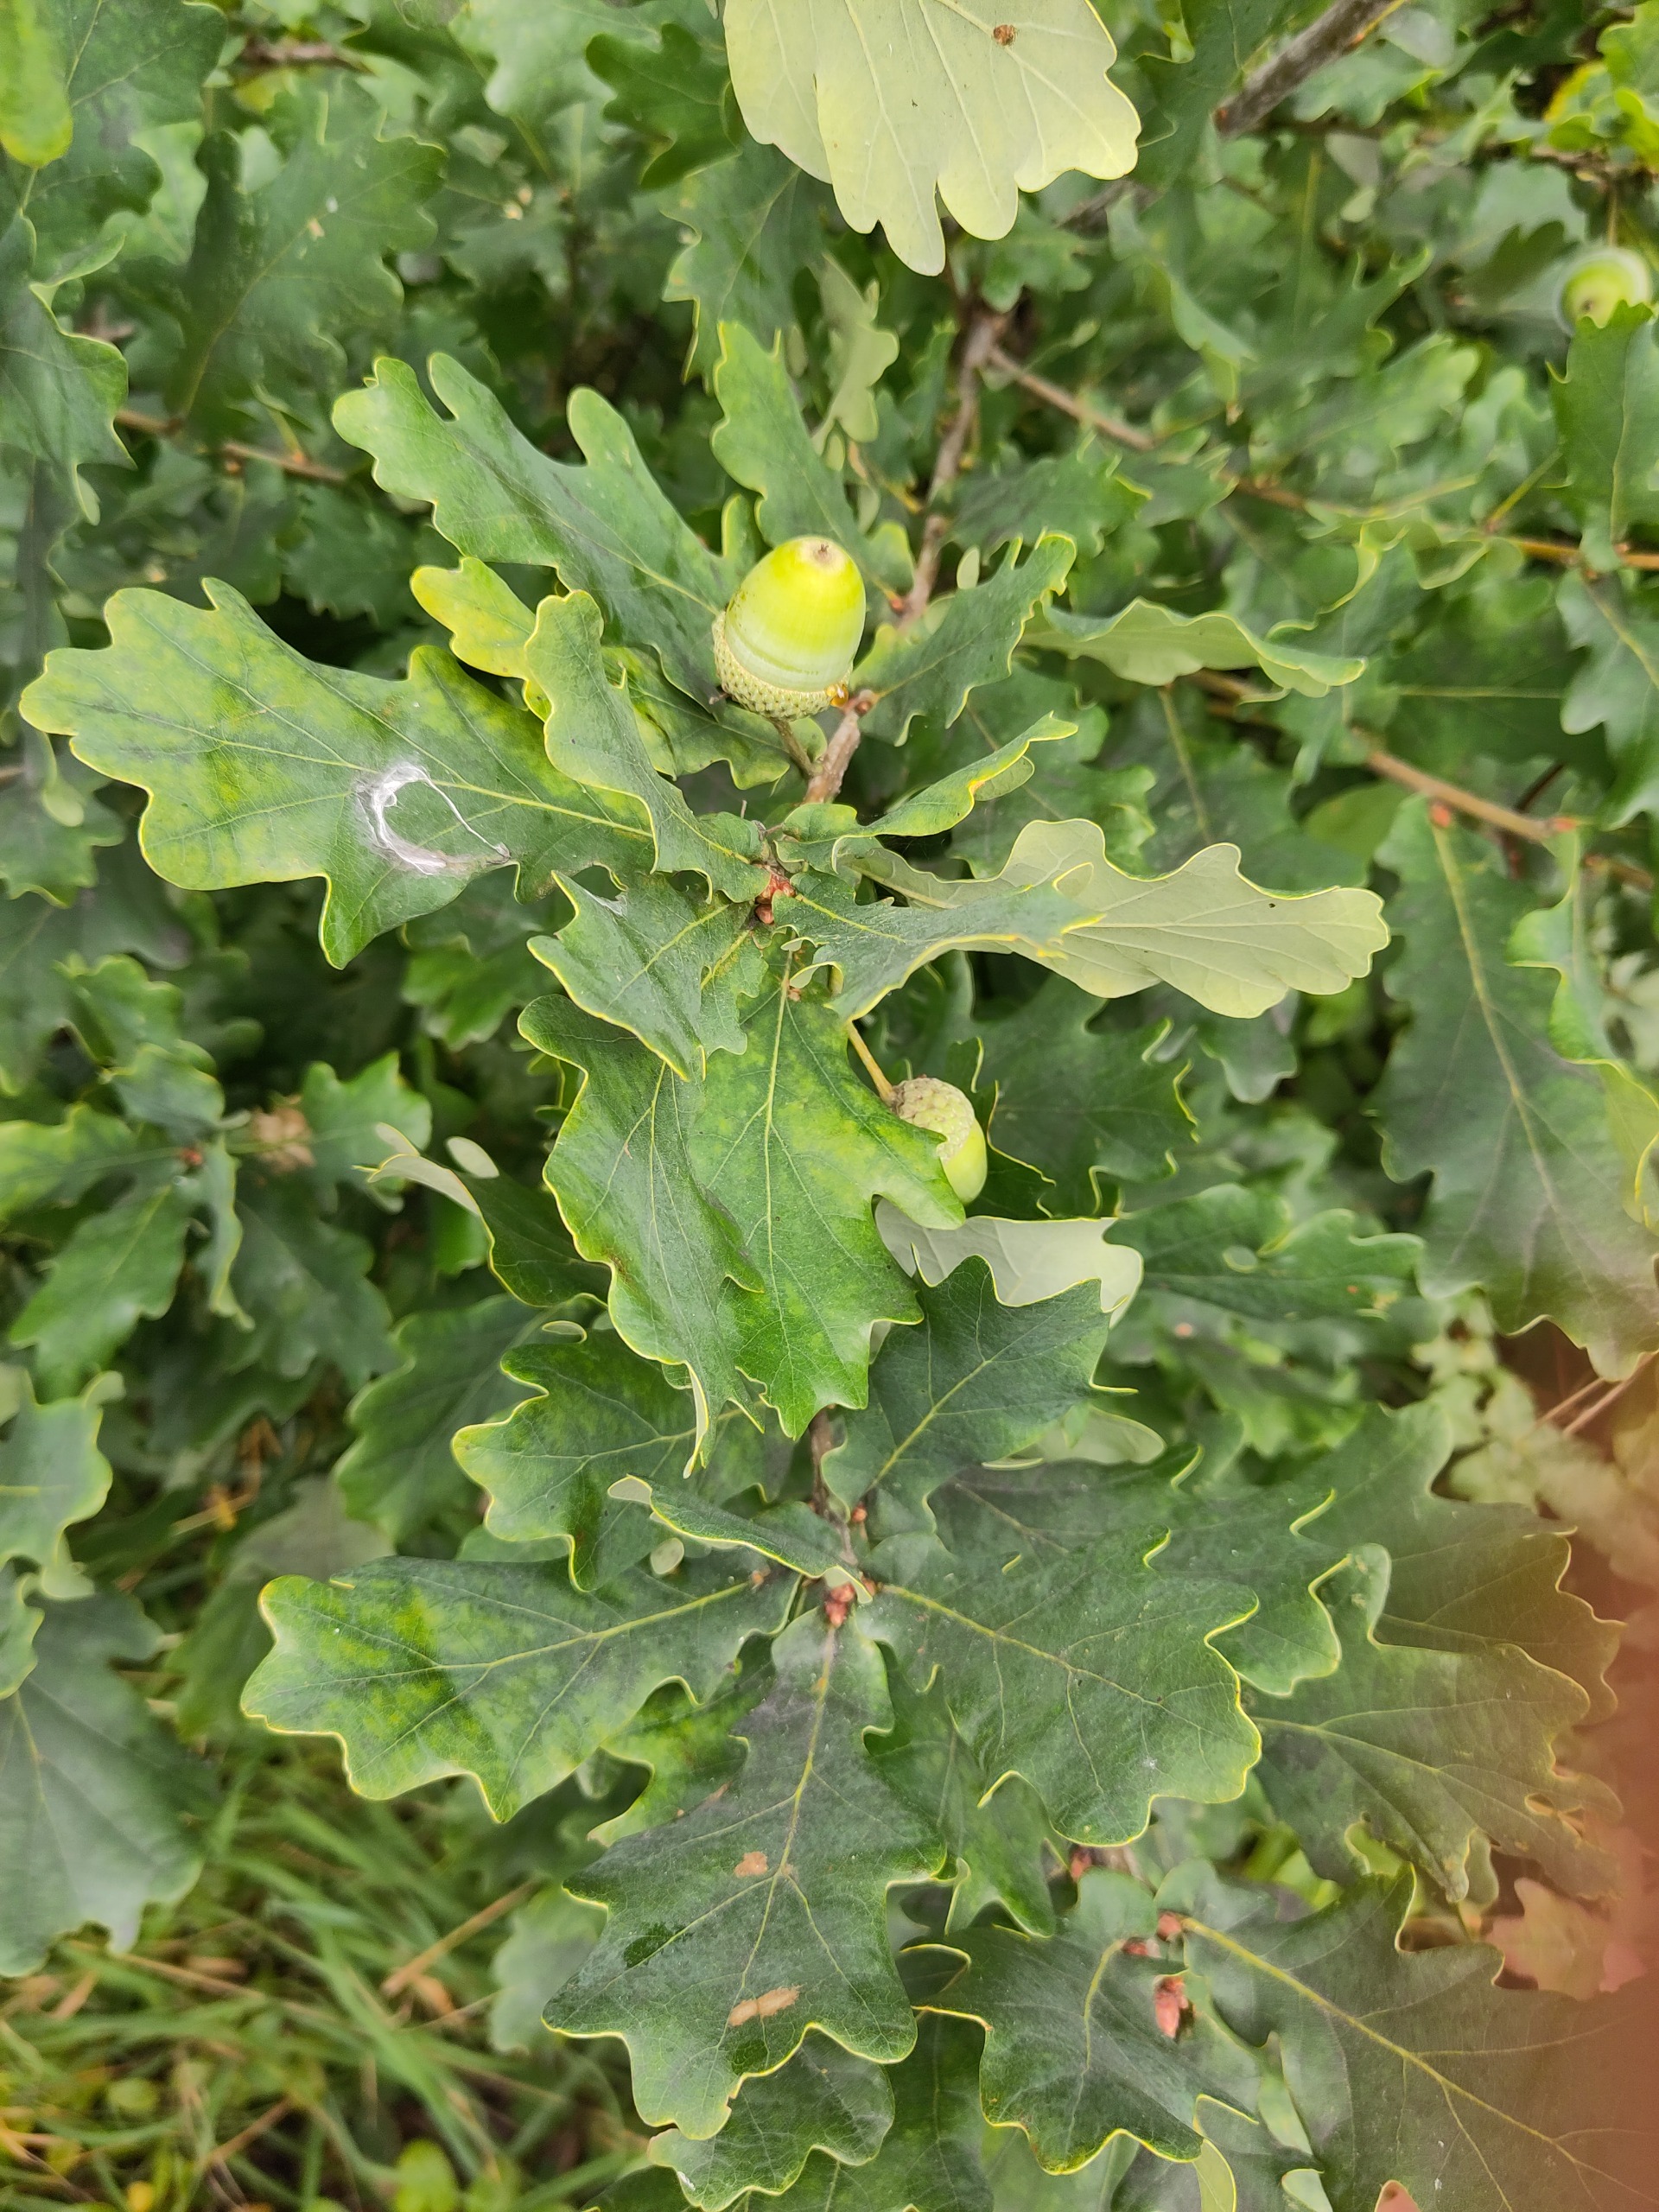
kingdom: Plantae
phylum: Tracheophyta
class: Magnoliopsida
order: Fagales
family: Fagaceae
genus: Quercus
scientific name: Quercus robur
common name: Stilk-eg/almindelig eg
